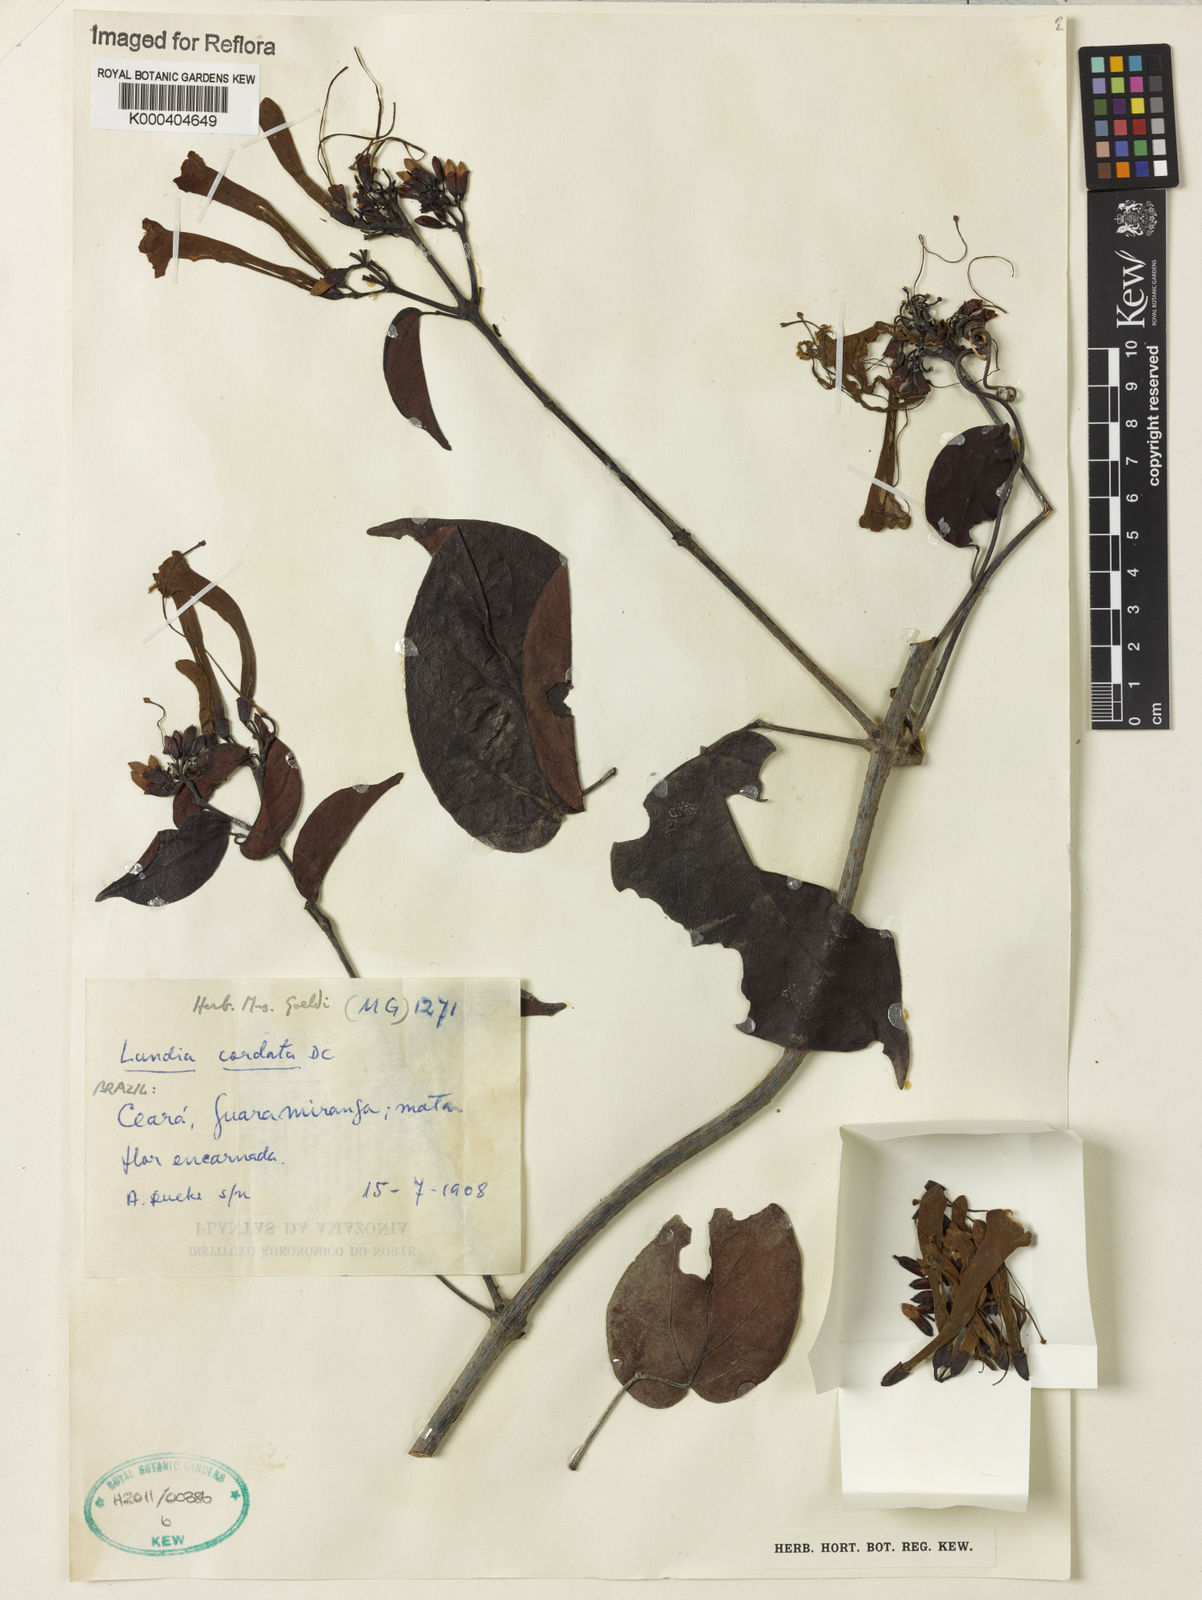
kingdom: Plantae
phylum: Tracheophyta
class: Magnoliopsida
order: Lamiales
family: Bignoniaceae
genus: Lundia
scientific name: Lundia corymbifera
